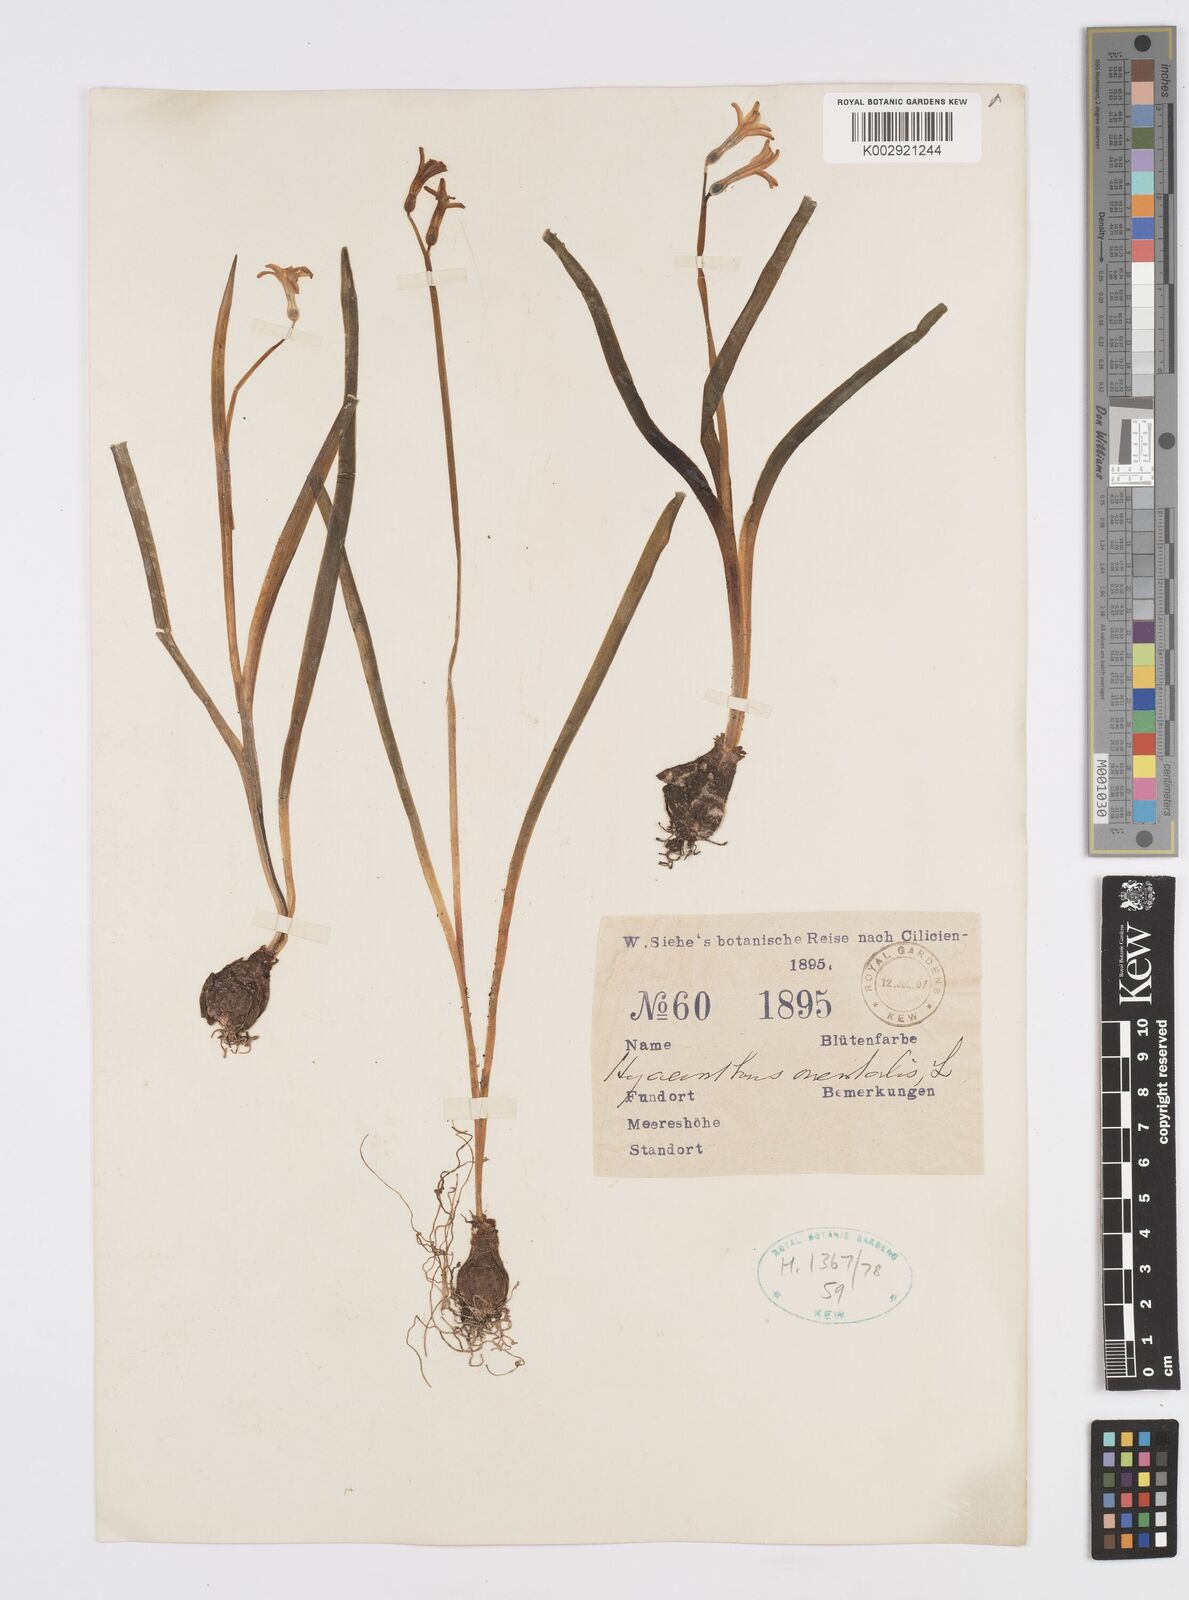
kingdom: Plantae
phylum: Tracheophyta
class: Liliopsida
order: Asparagales
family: Asparagaceae
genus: Hyacinthus
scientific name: Hyacinthus orientalis
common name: Hyacinth
